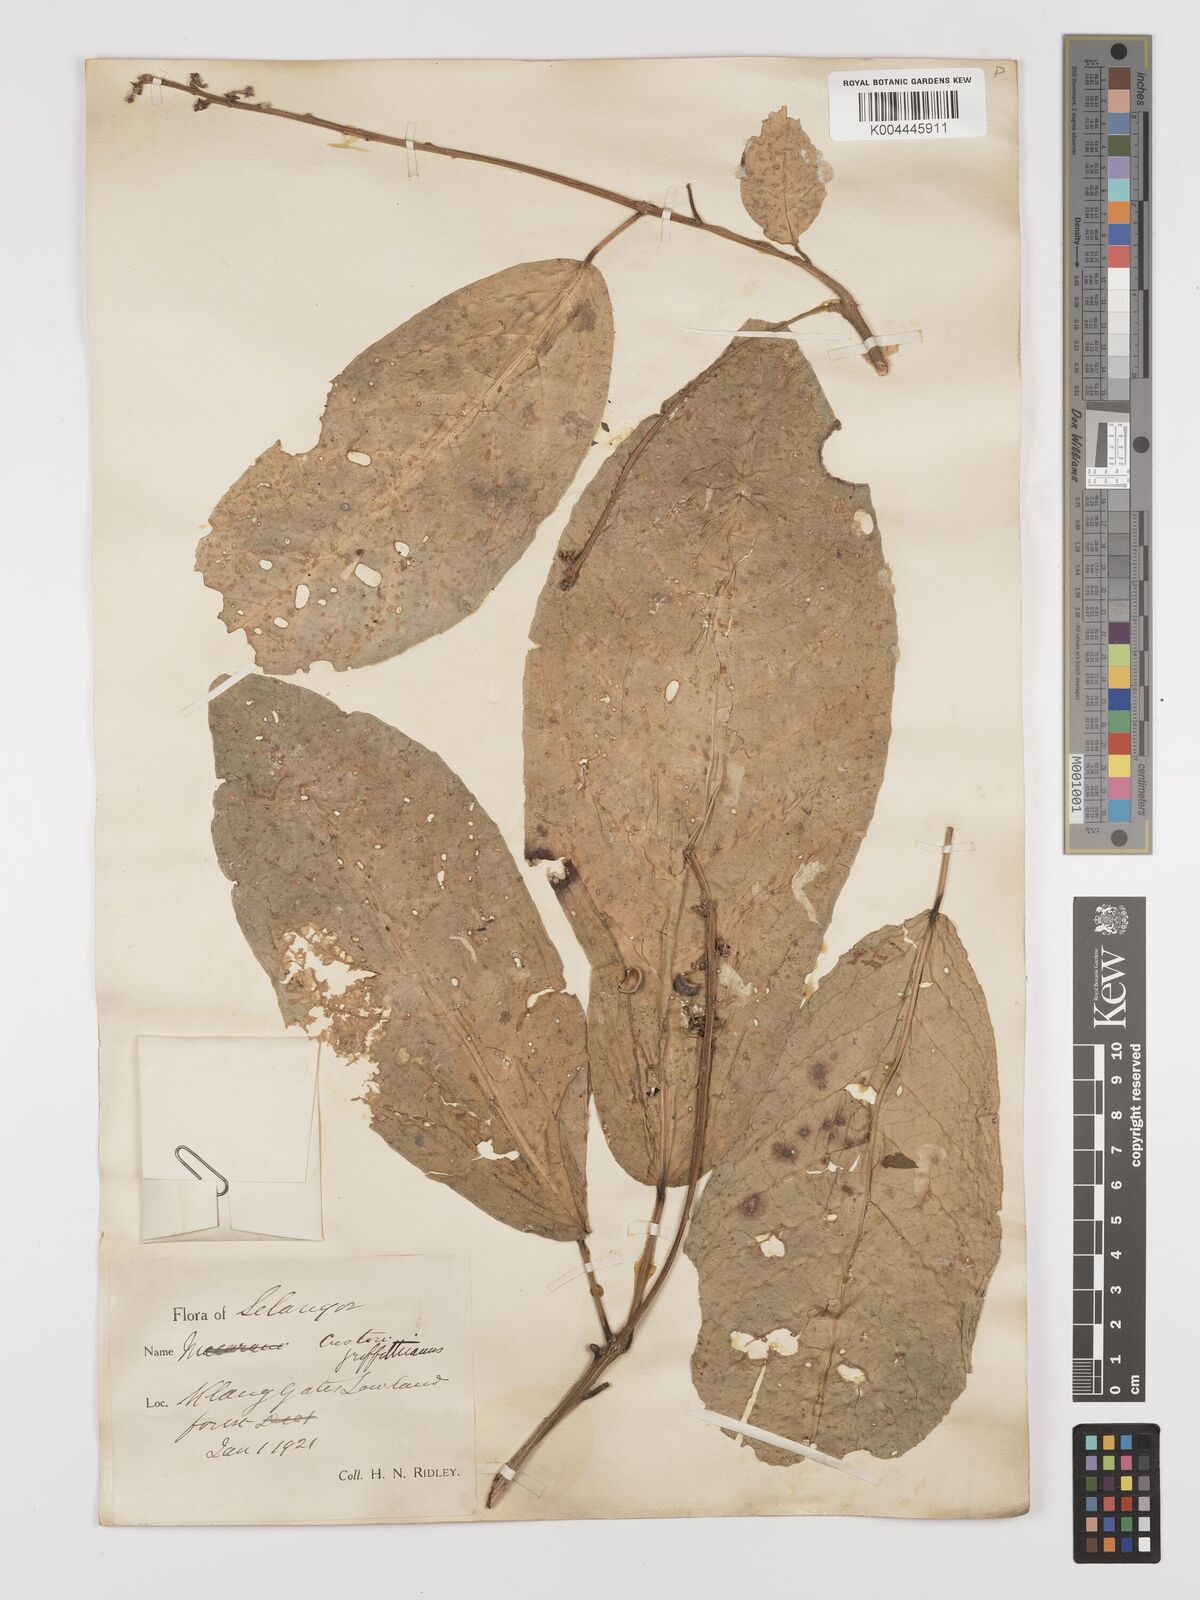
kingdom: Plantae
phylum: Tracheophyta
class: Magnoliopsida
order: Malpighiales
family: Euphorbiaceae
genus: Croton
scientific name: Croton griffithii
